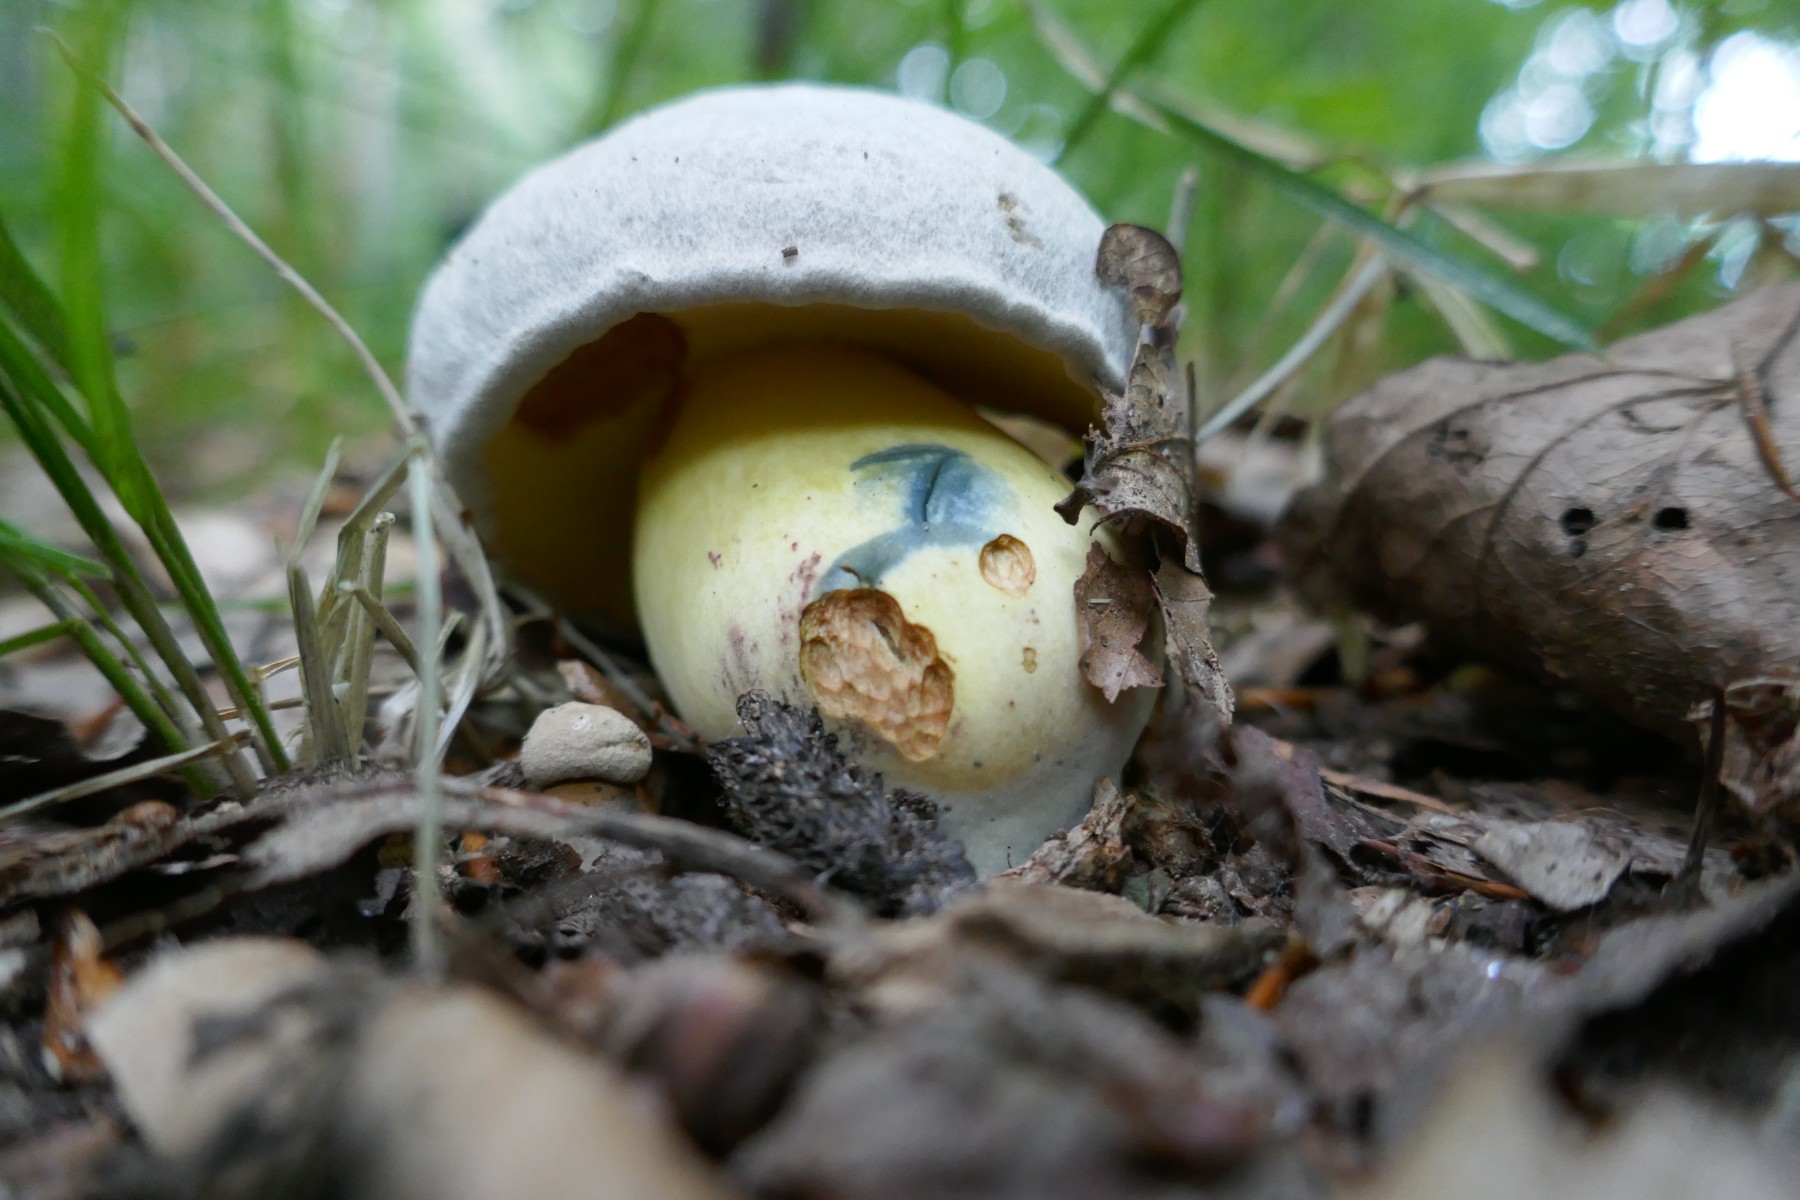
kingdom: Fungi
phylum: Basidiomycota
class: Agaricomycetes
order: Boletales
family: Boletaceae
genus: Caloboletus
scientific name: Caloboletus radicans
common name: rod-rørhat
